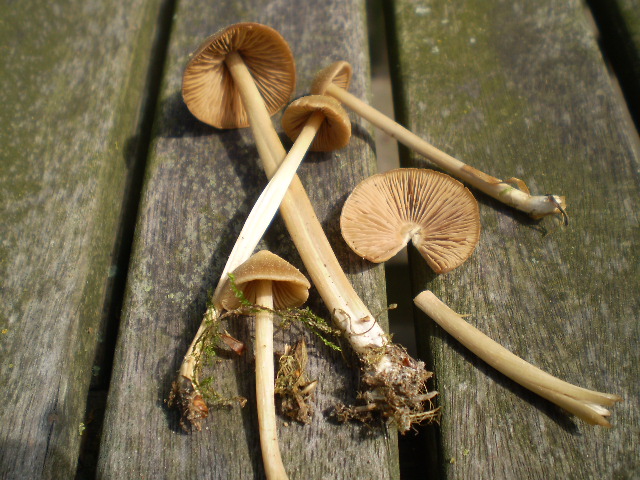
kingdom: Fungi
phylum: Basidiomycota
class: Agaricomycetes
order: Agaricales
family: Entolomataceae
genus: Entoloma
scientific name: Entoloma pallescens
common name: tidlig rødblad
